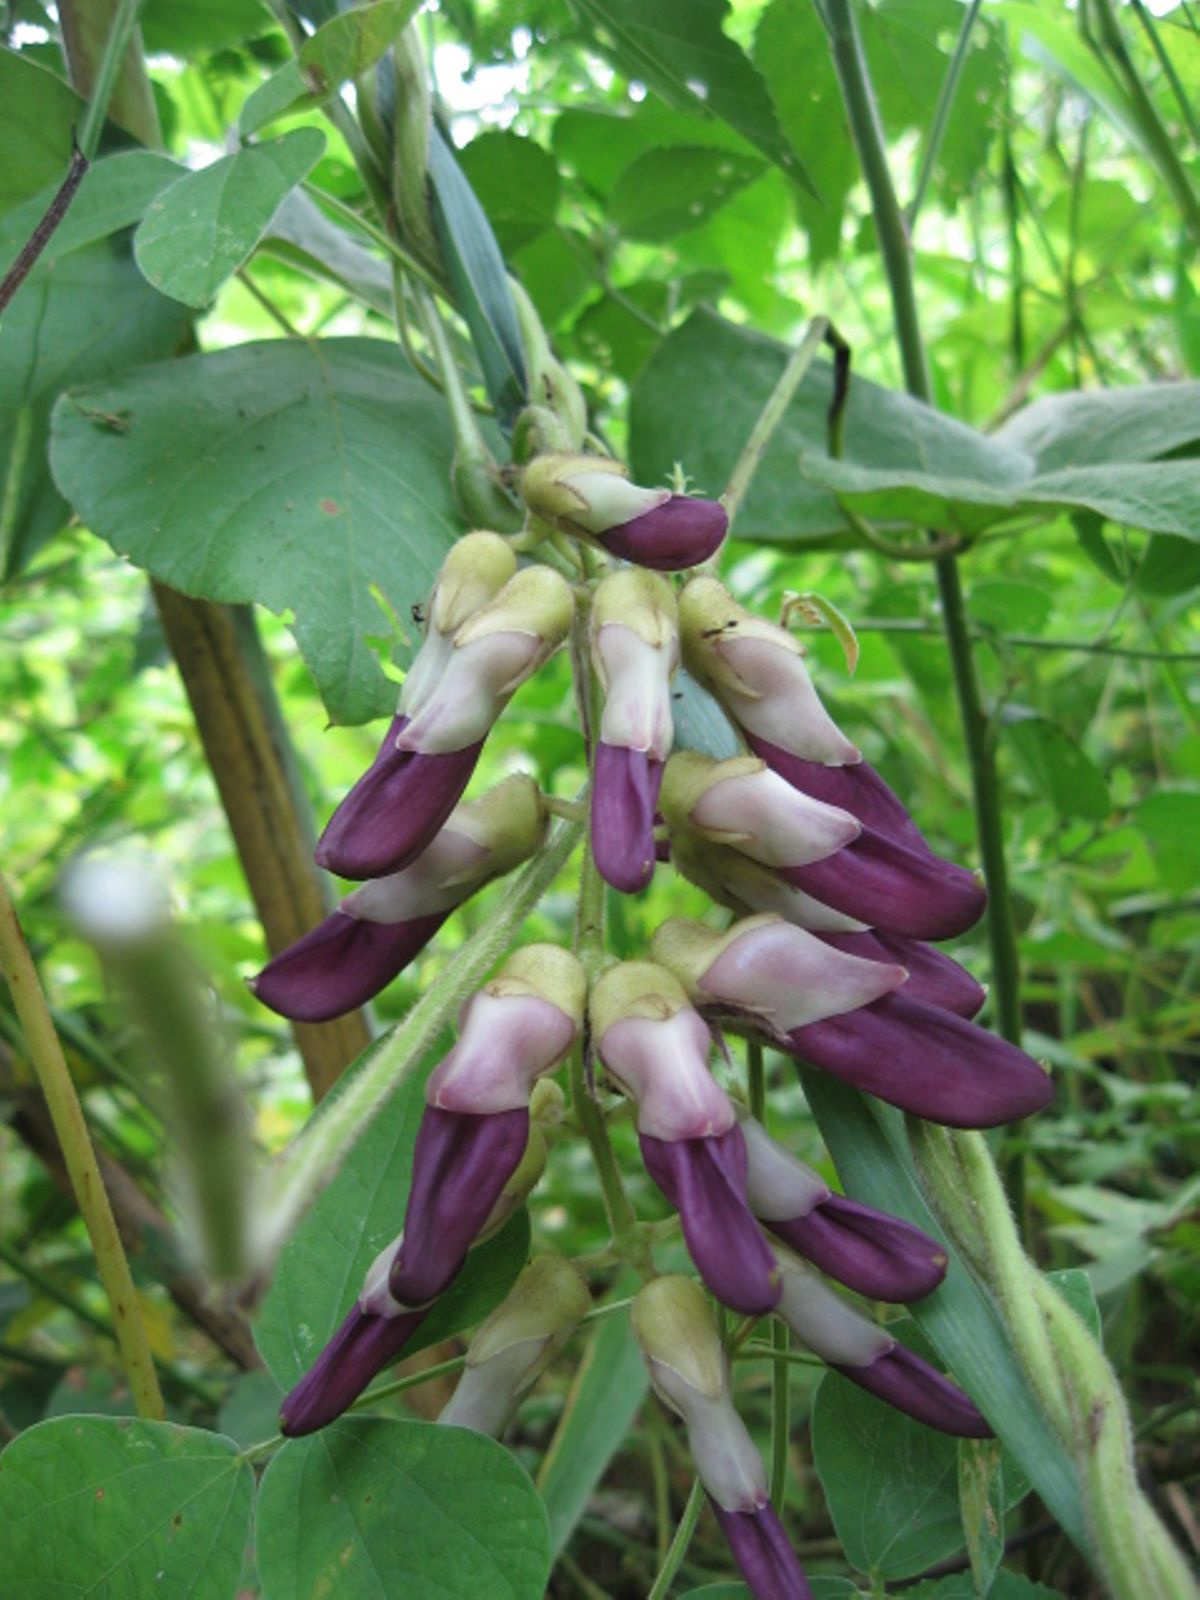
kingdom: Plantae
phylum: Tracheophyta
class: Magnoliopsida
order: Fabales
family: Fabaceae
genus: Mucuna
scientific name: Mucuna pruriens
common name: Cow-itch
